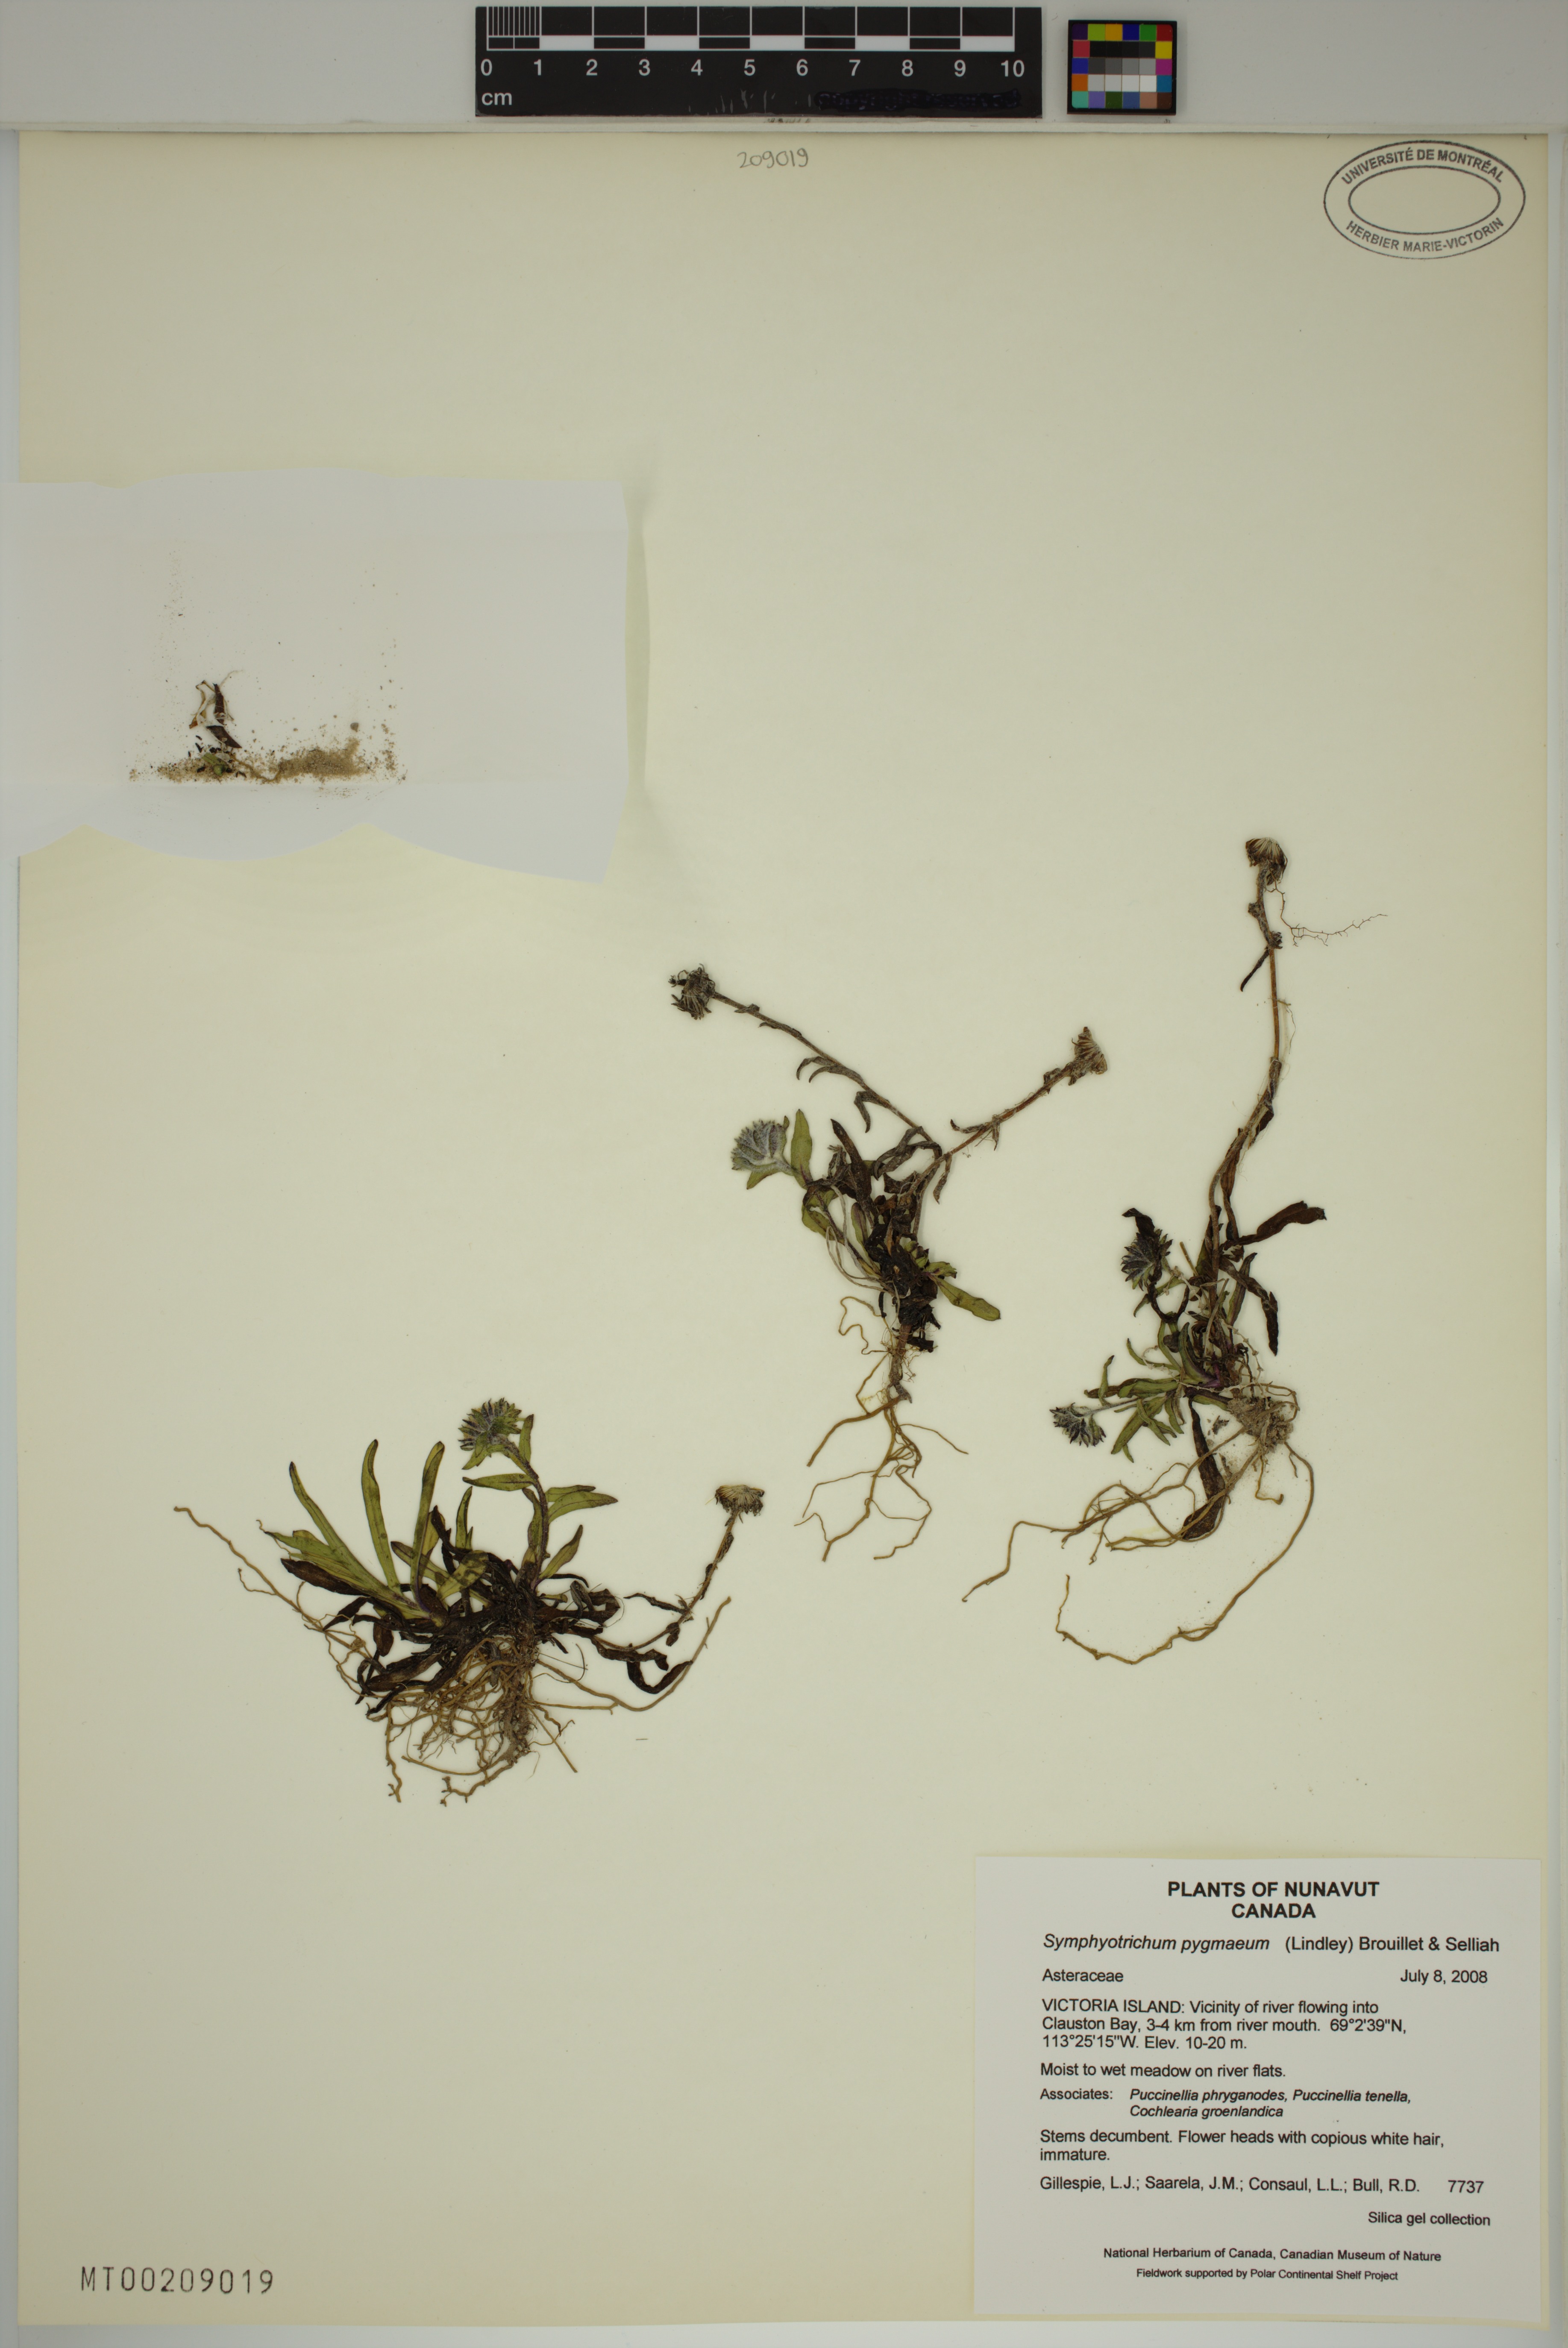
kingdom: Plantae
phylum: Tracheophyta
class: Magnoliopsida
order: Asterales
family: Asteraceae
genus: Symphyotrichum
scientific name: Symphyotrichum pygmaeum
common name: Pygmy aster
